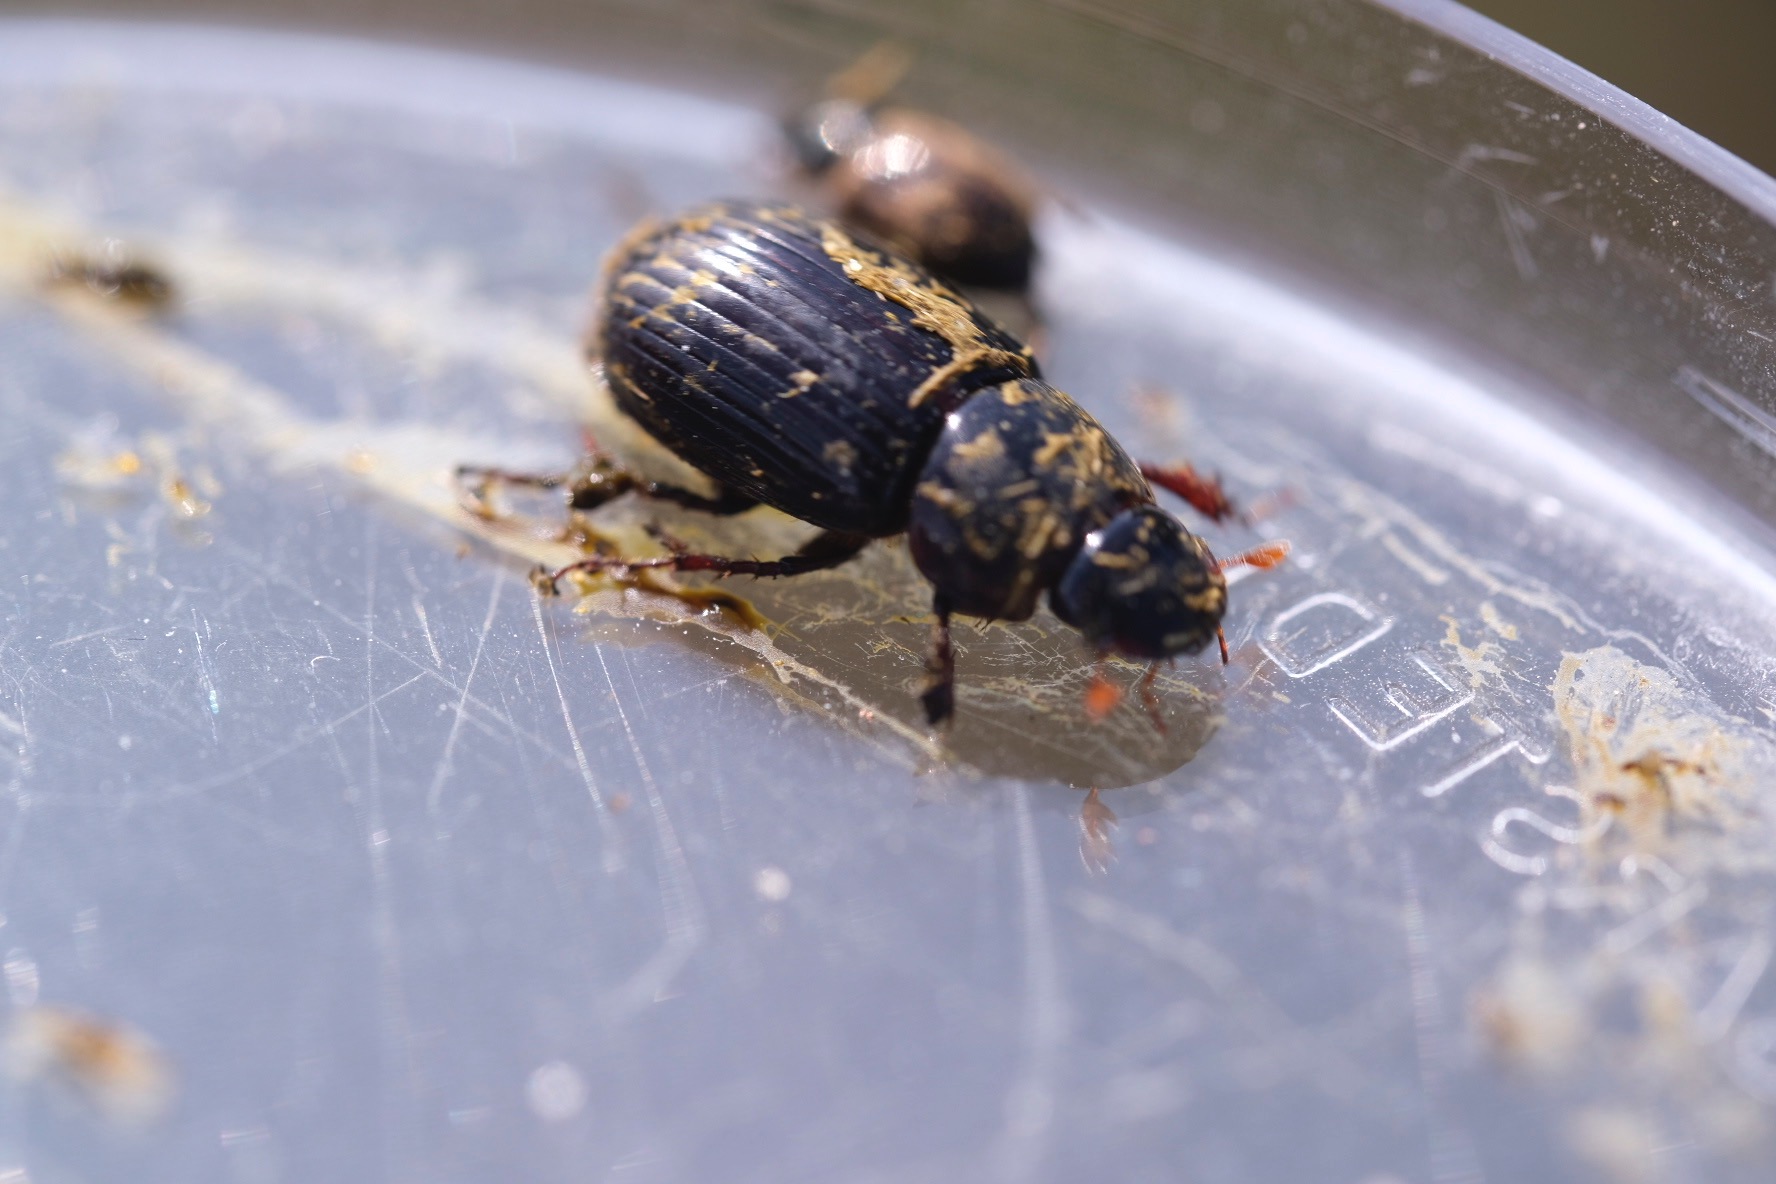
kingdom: Animalia
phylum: Arthropoda
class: Insecta
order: Coleoptera
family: Scarabaeidae
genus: Acrossus
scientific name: Acrossus rufipes
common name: Rødbenet møgbille
